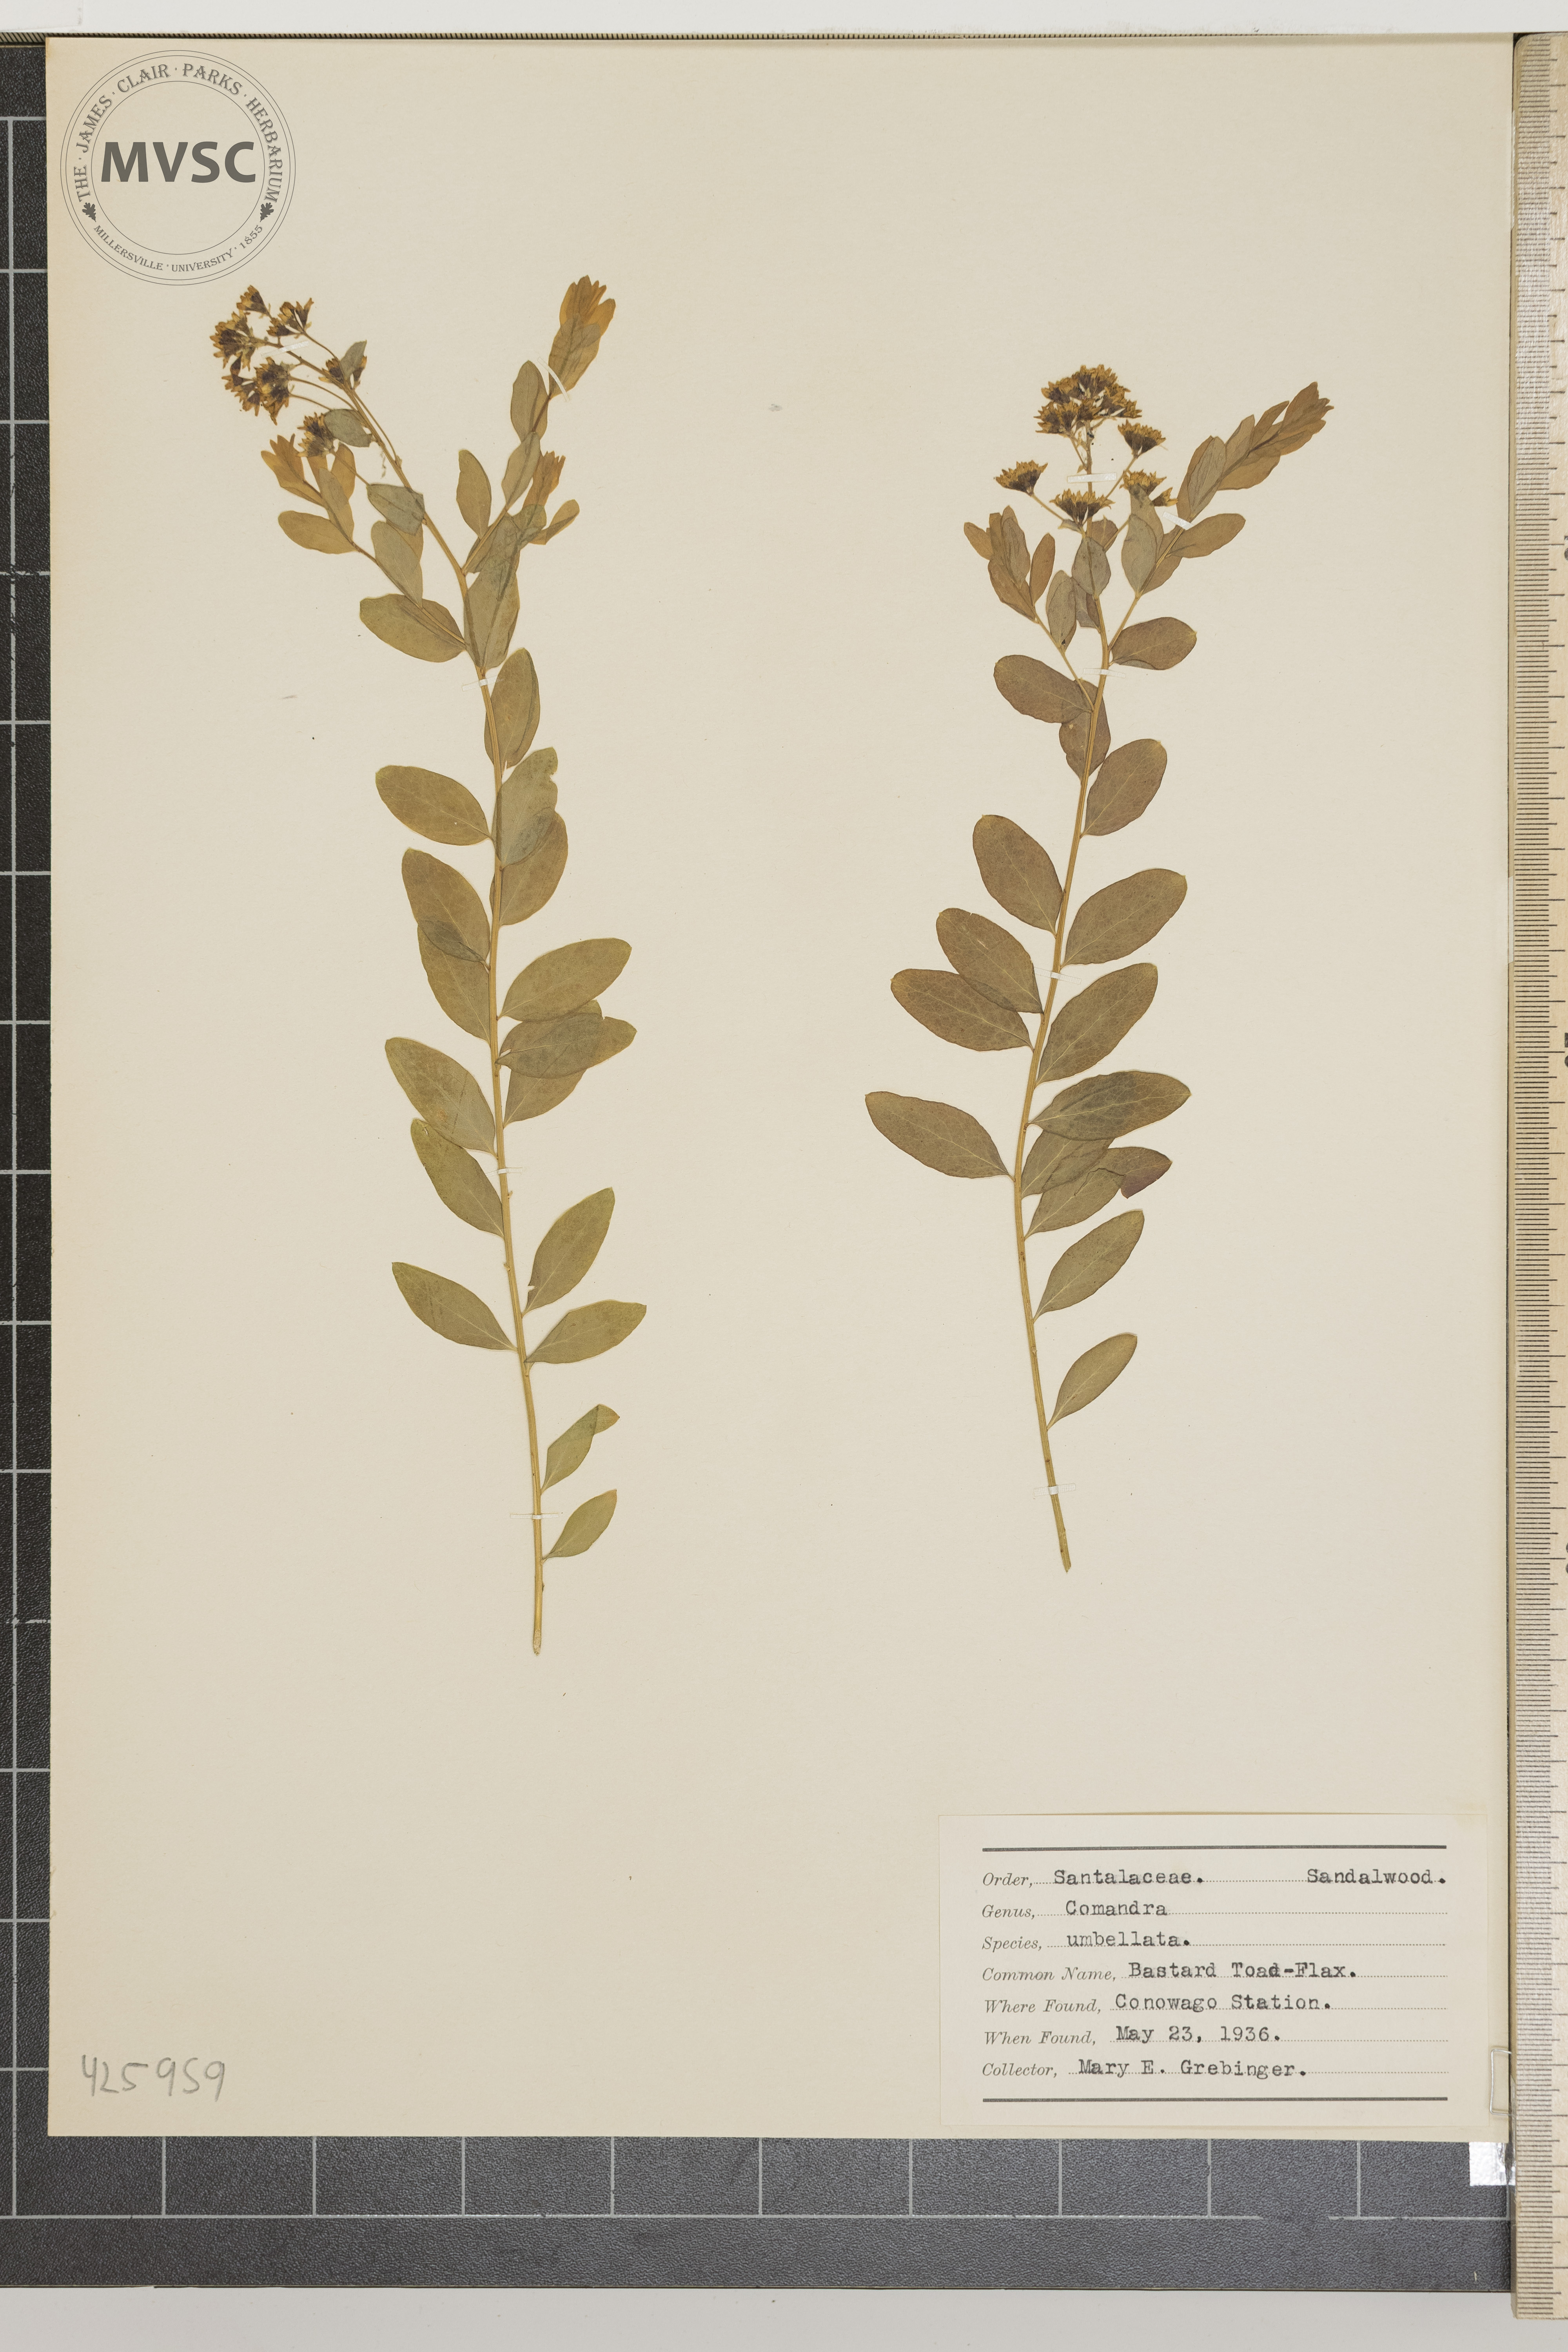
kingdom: Plantae
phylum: Tracheophyta
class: Magnoliopsida
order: Santalales
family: Comandraceae
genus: Comandra
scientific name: Comandra umbellata
